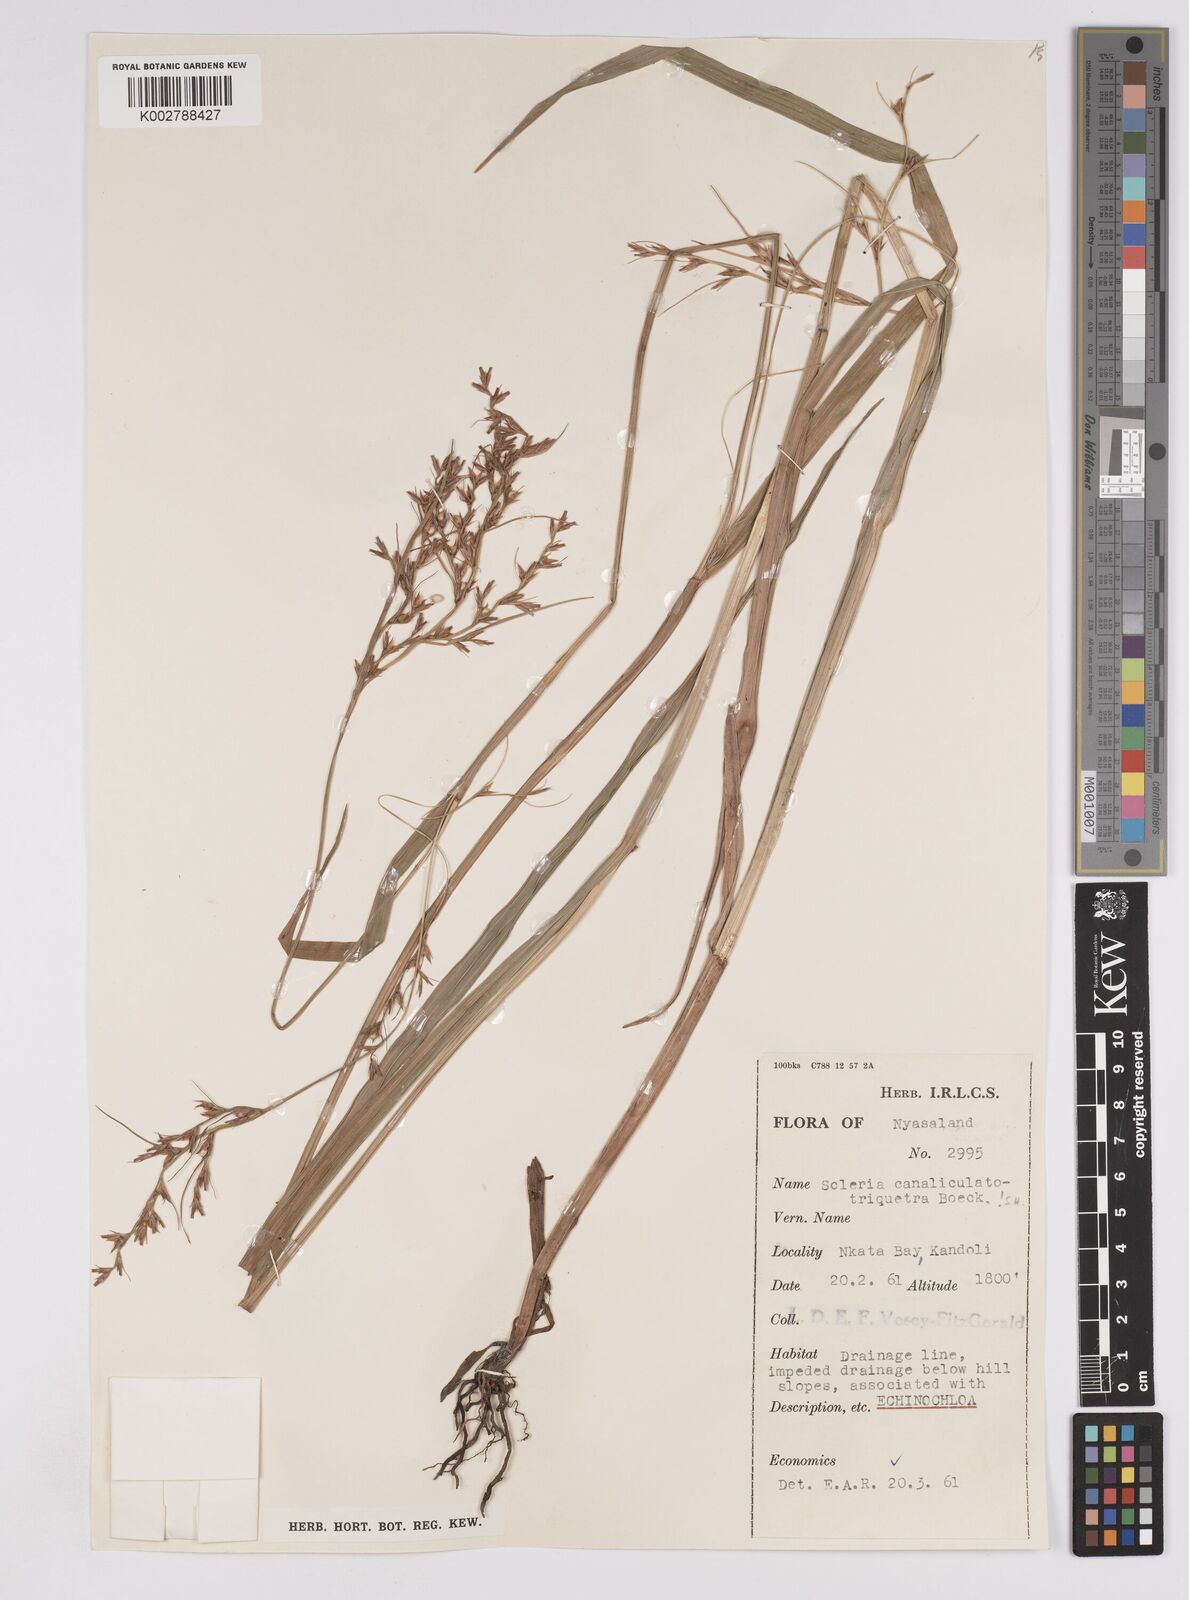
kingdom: Plantae
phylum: Tracheophyta
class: Liliopsida
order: Poales
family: Cyperaceae
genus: Scleria
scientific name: Scleria lagoensis
